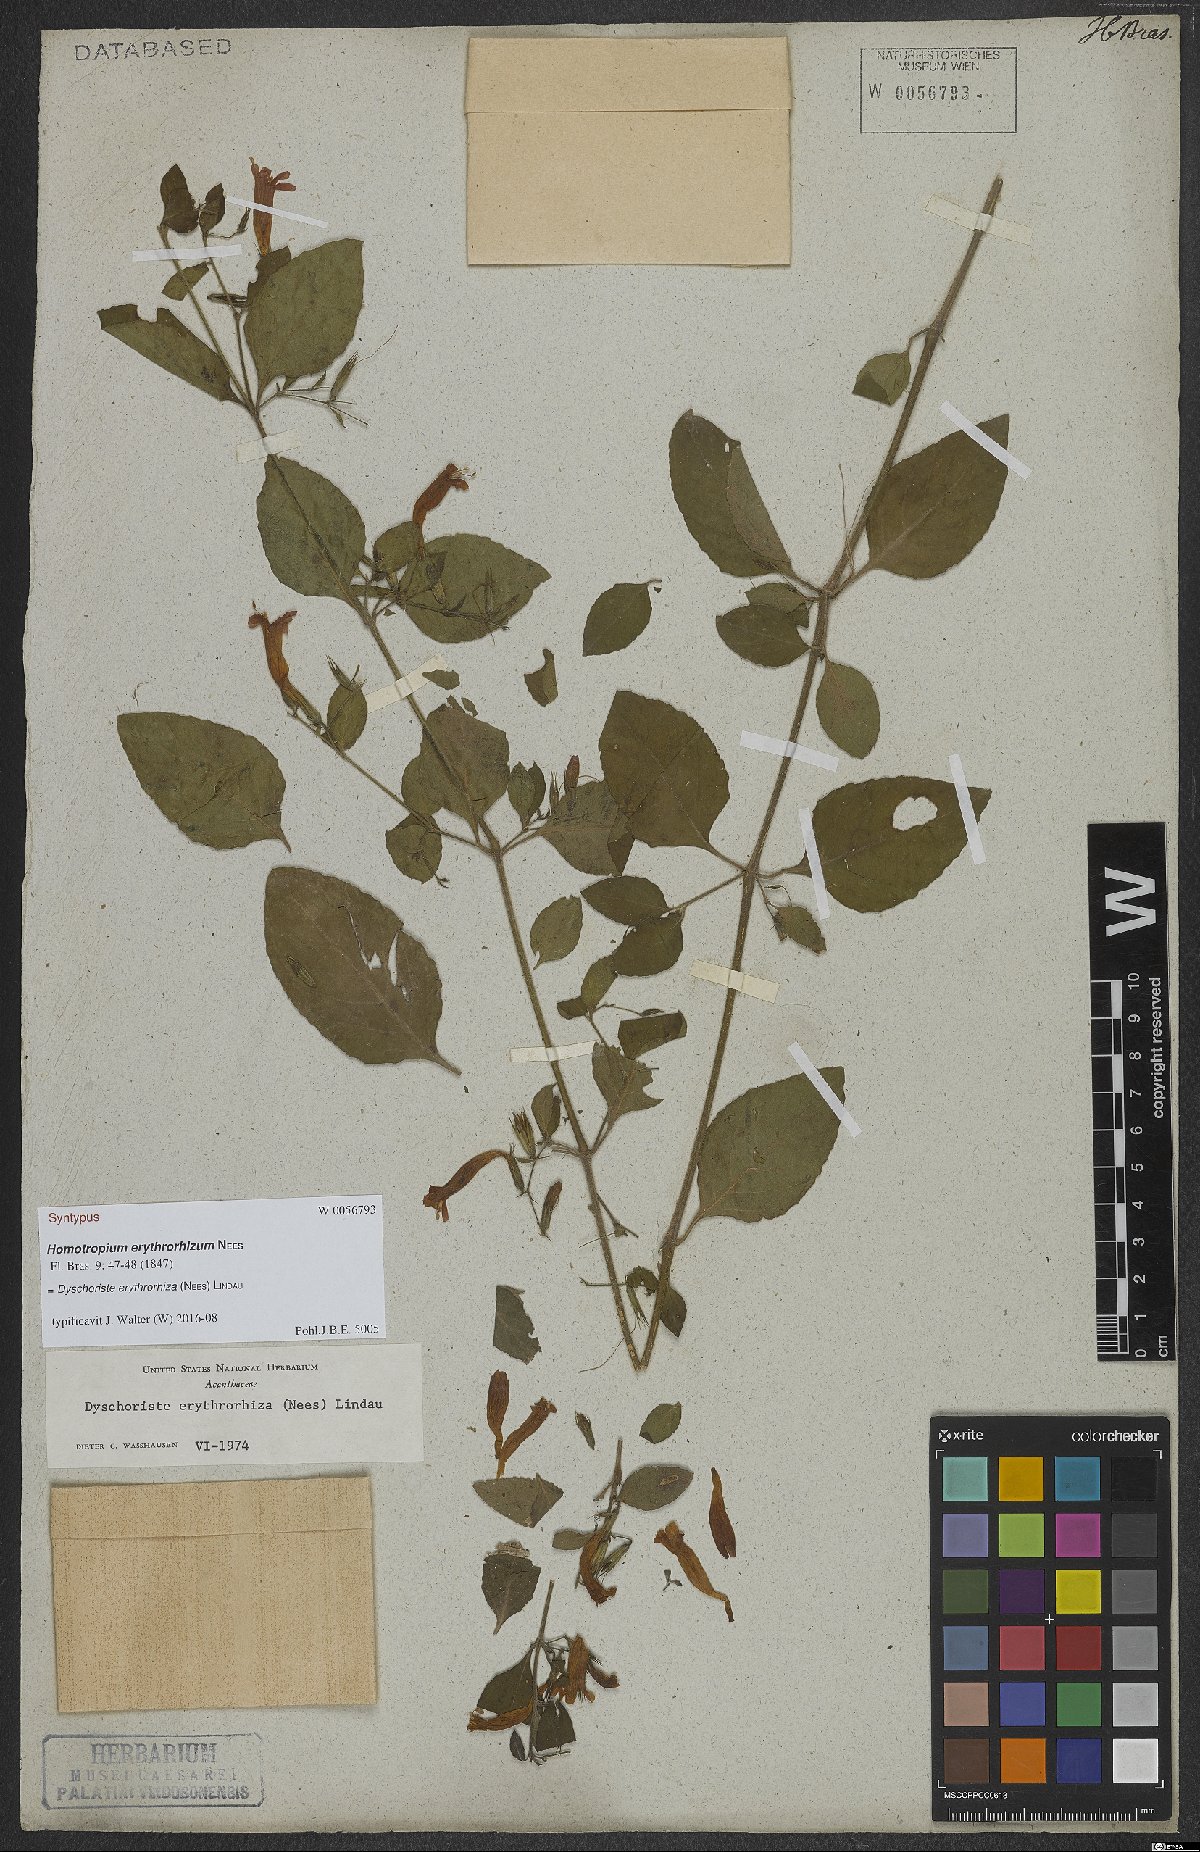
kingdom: Plantae
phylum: Tracheophyta
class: Magnoliopsida
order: Lamiales
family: Acanthaceae
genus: Dyschoriste
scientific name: Dyschoriste erythrorhiza
